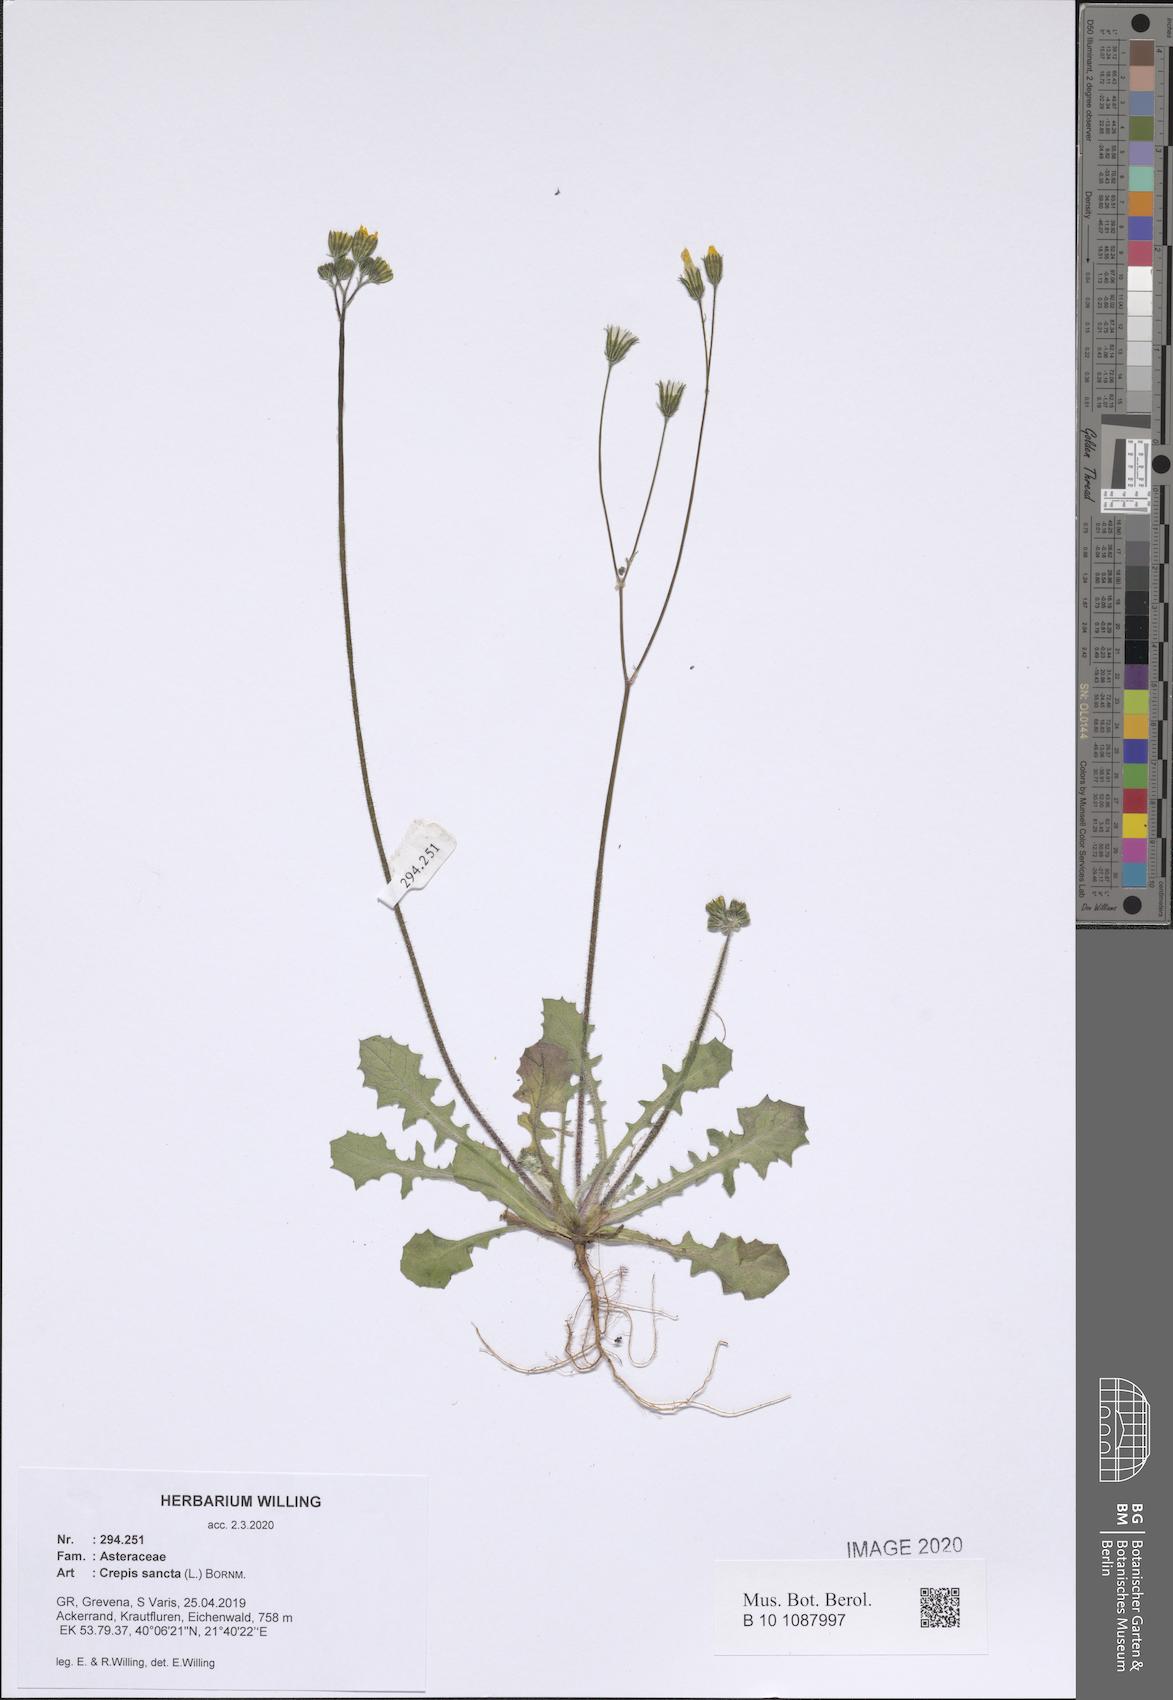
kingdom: Plantae
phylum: Tracheophyta
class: Magnoliopsida
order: Asterales
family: Asteraceae
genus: Crepis
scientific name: Crepis sancta
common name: Hawk's-beard
